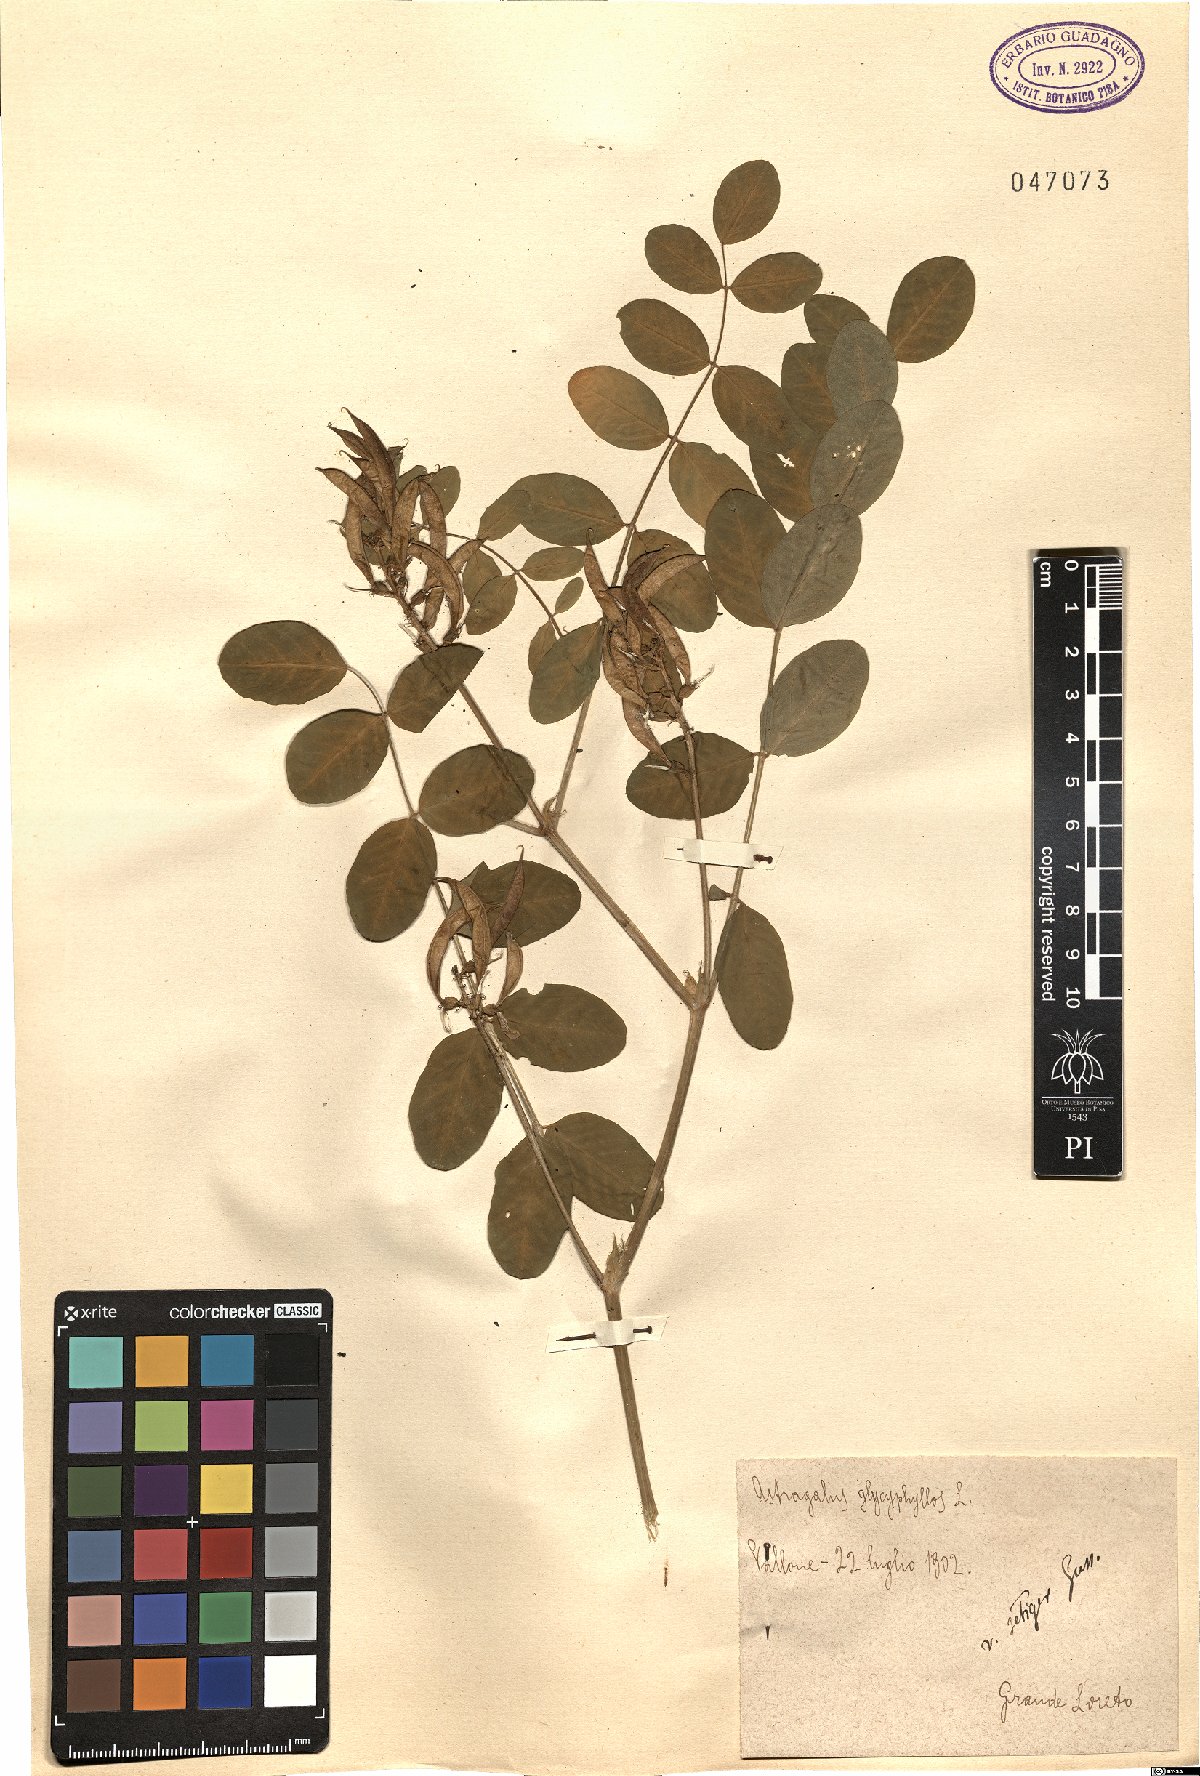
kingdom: Plantae
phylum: Tracheophyta
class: Magnoliopsida
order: Fabales
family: Fabaceae
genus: Astragalus
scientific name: Astragalus glycyphyllos
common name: Wild liquorice
